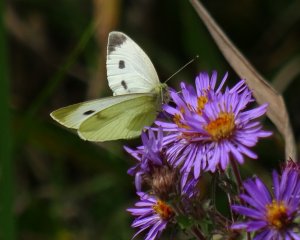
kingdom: Animalia
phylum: Arthropoda
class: Insecta
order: Lepidoptera
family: Pieridae
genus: Pieris
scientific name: Pieris rapae
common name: Cabbage White
